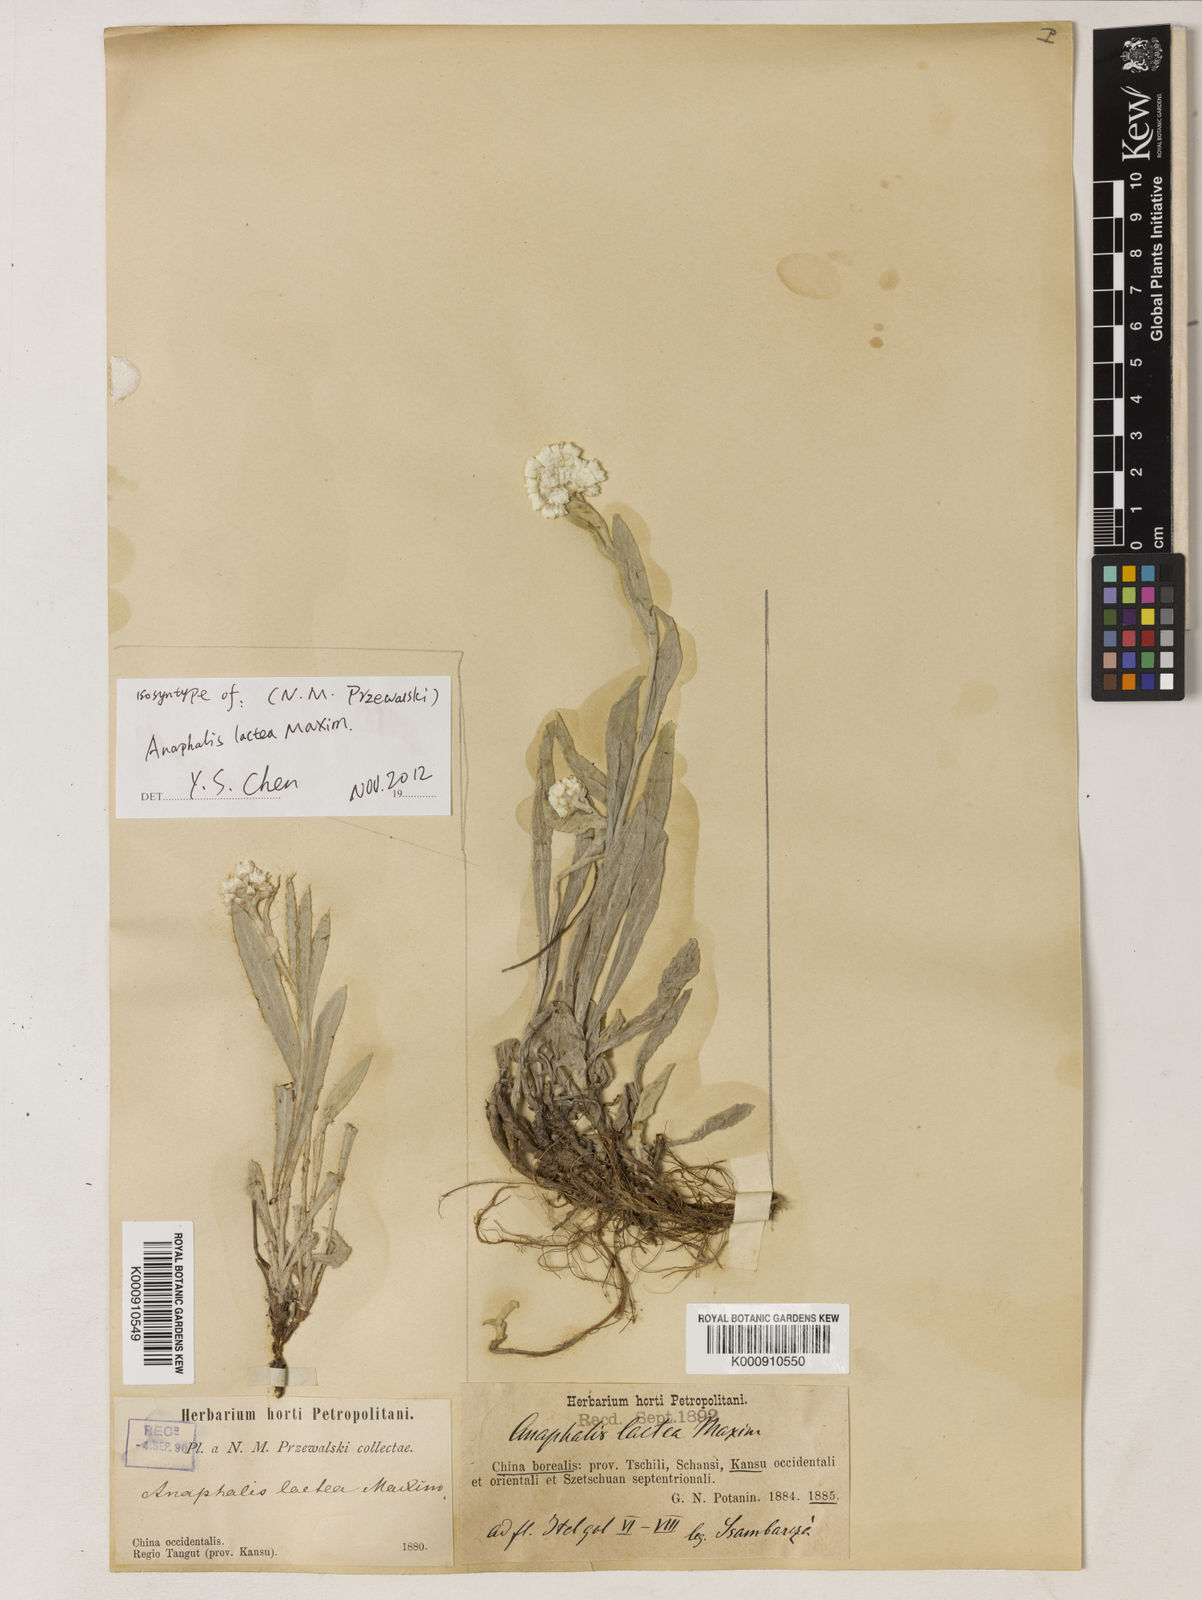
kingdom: Plantae
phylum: Tracheophyta
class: Magnoliopsida
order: Asterales
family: Asteraceae
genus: Anaphalis
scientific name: Anaphalis lactea
